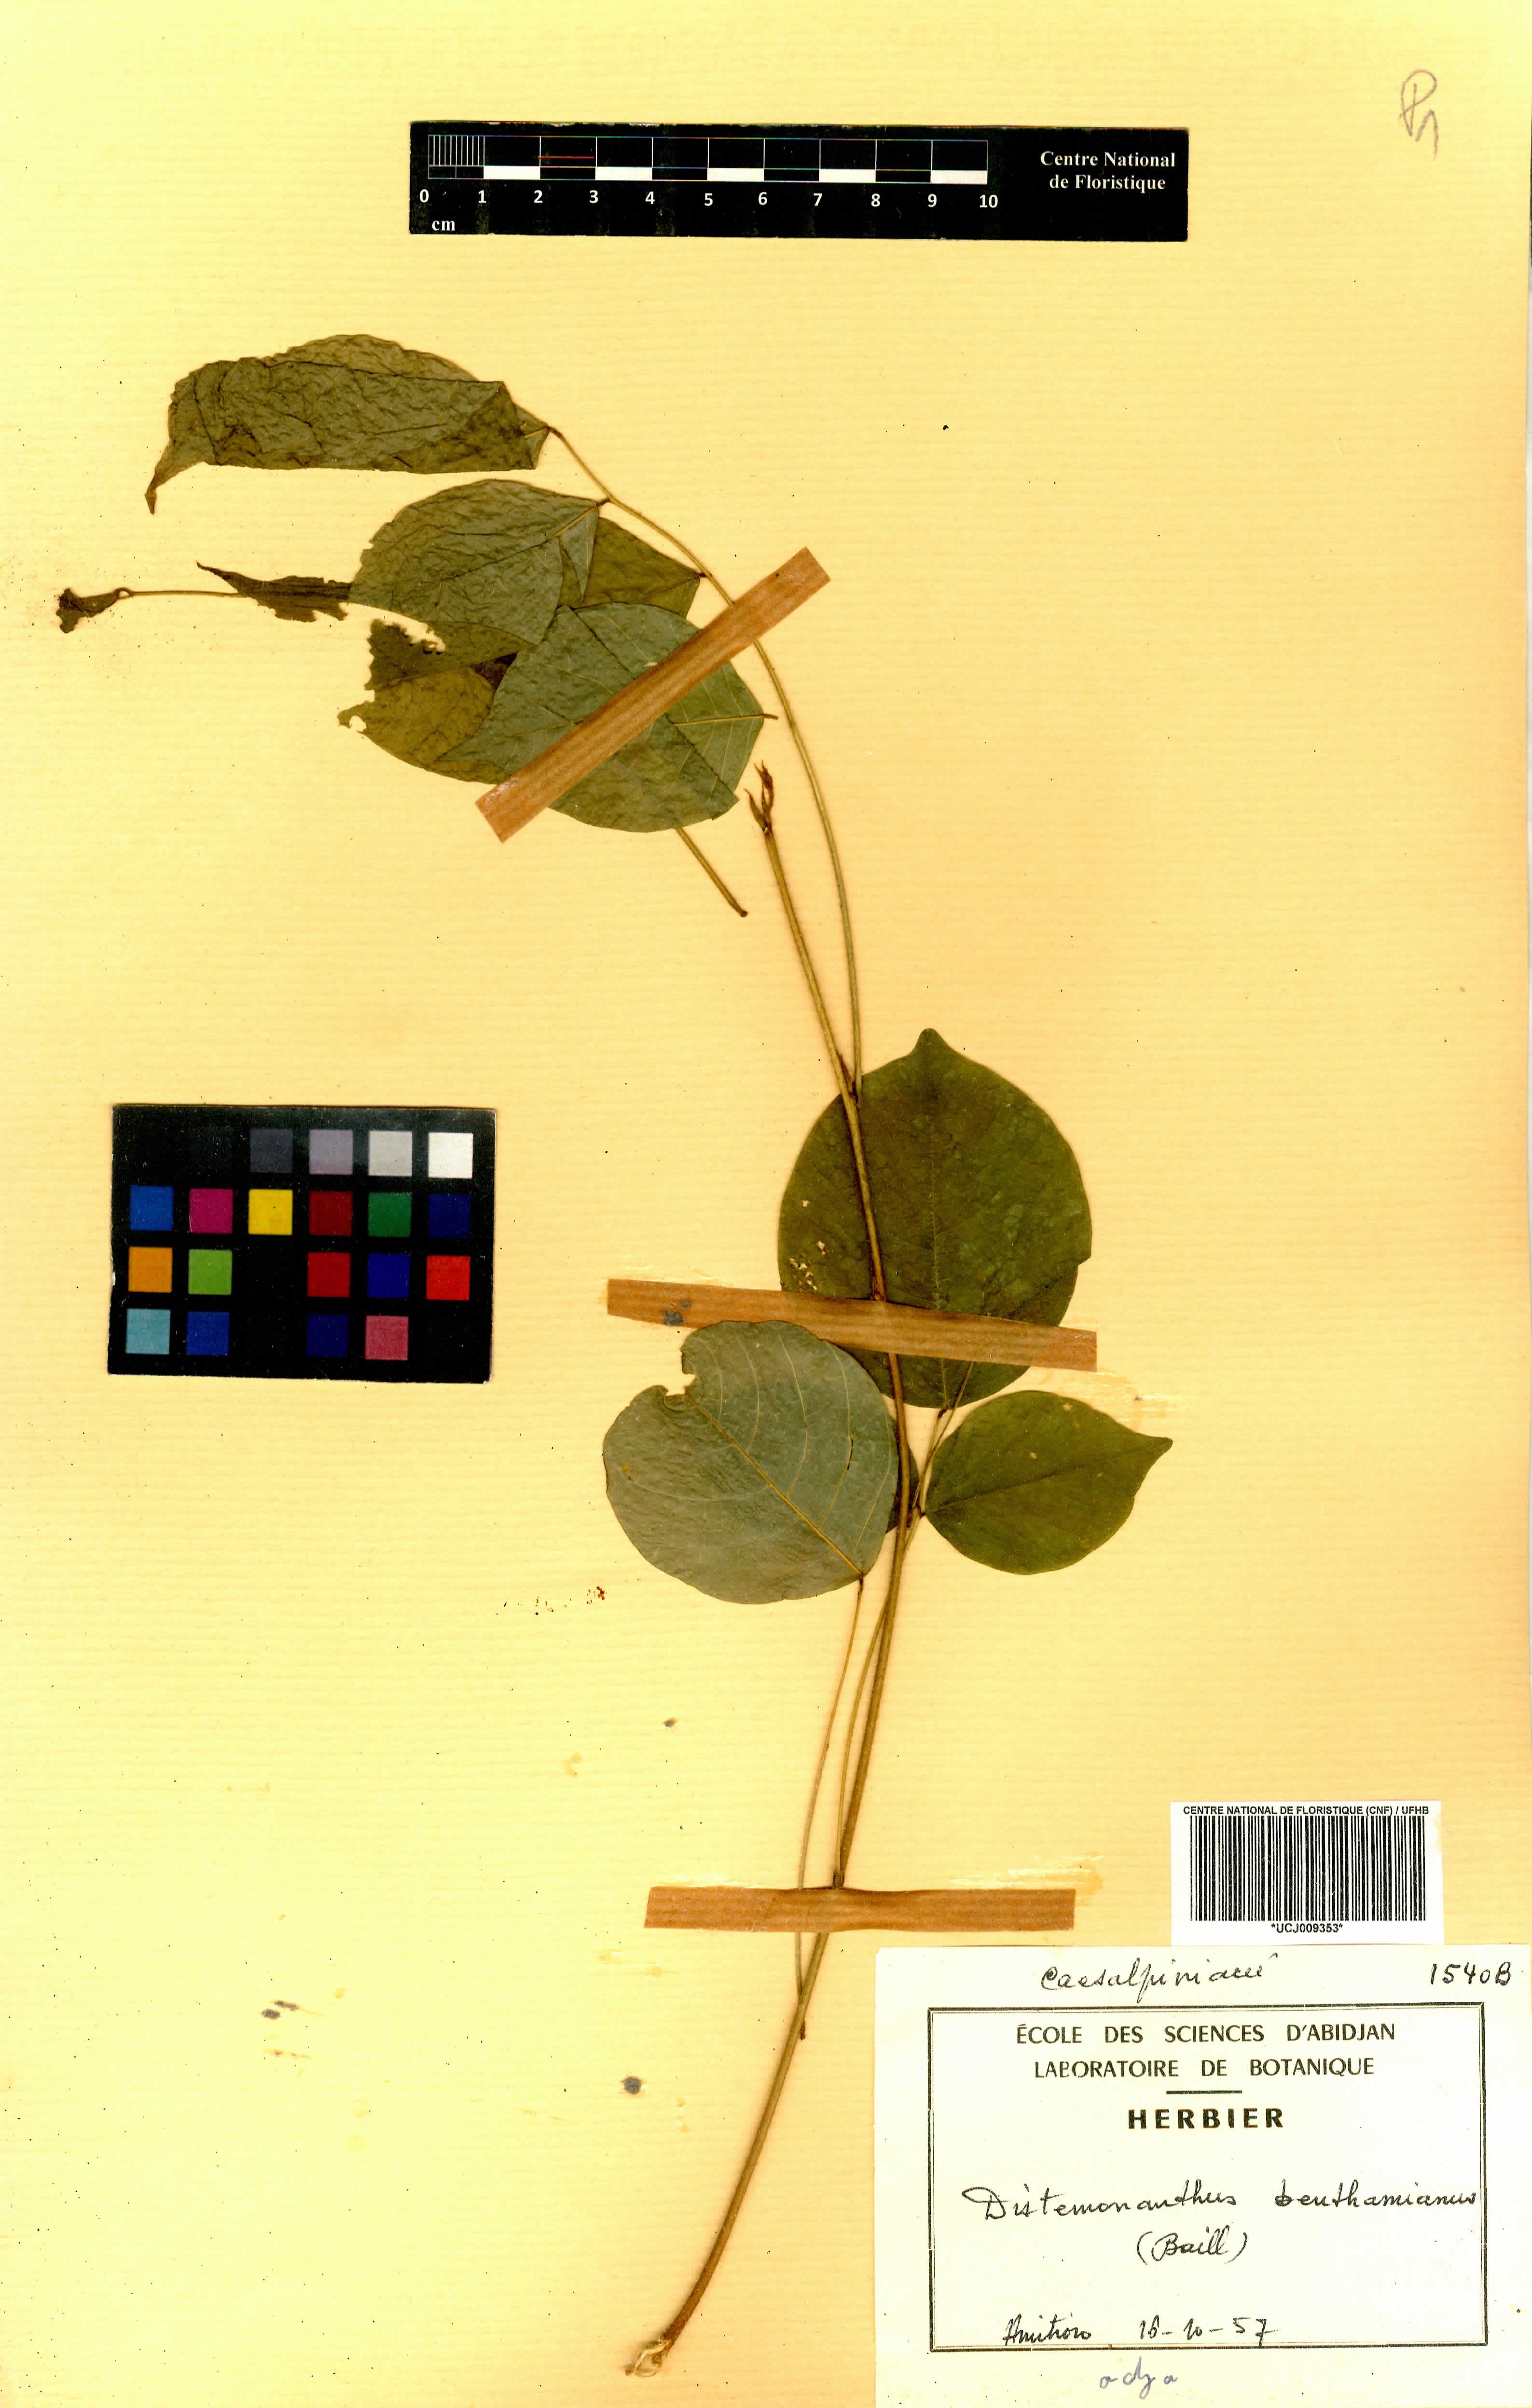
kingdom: Plantae
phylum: Tracheophyta
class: Magnoliopsida
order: Fabales
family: Fabaceae
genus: Distemonanthus
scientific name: Distemonanthus benthamianus
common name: Yellow satinwood
